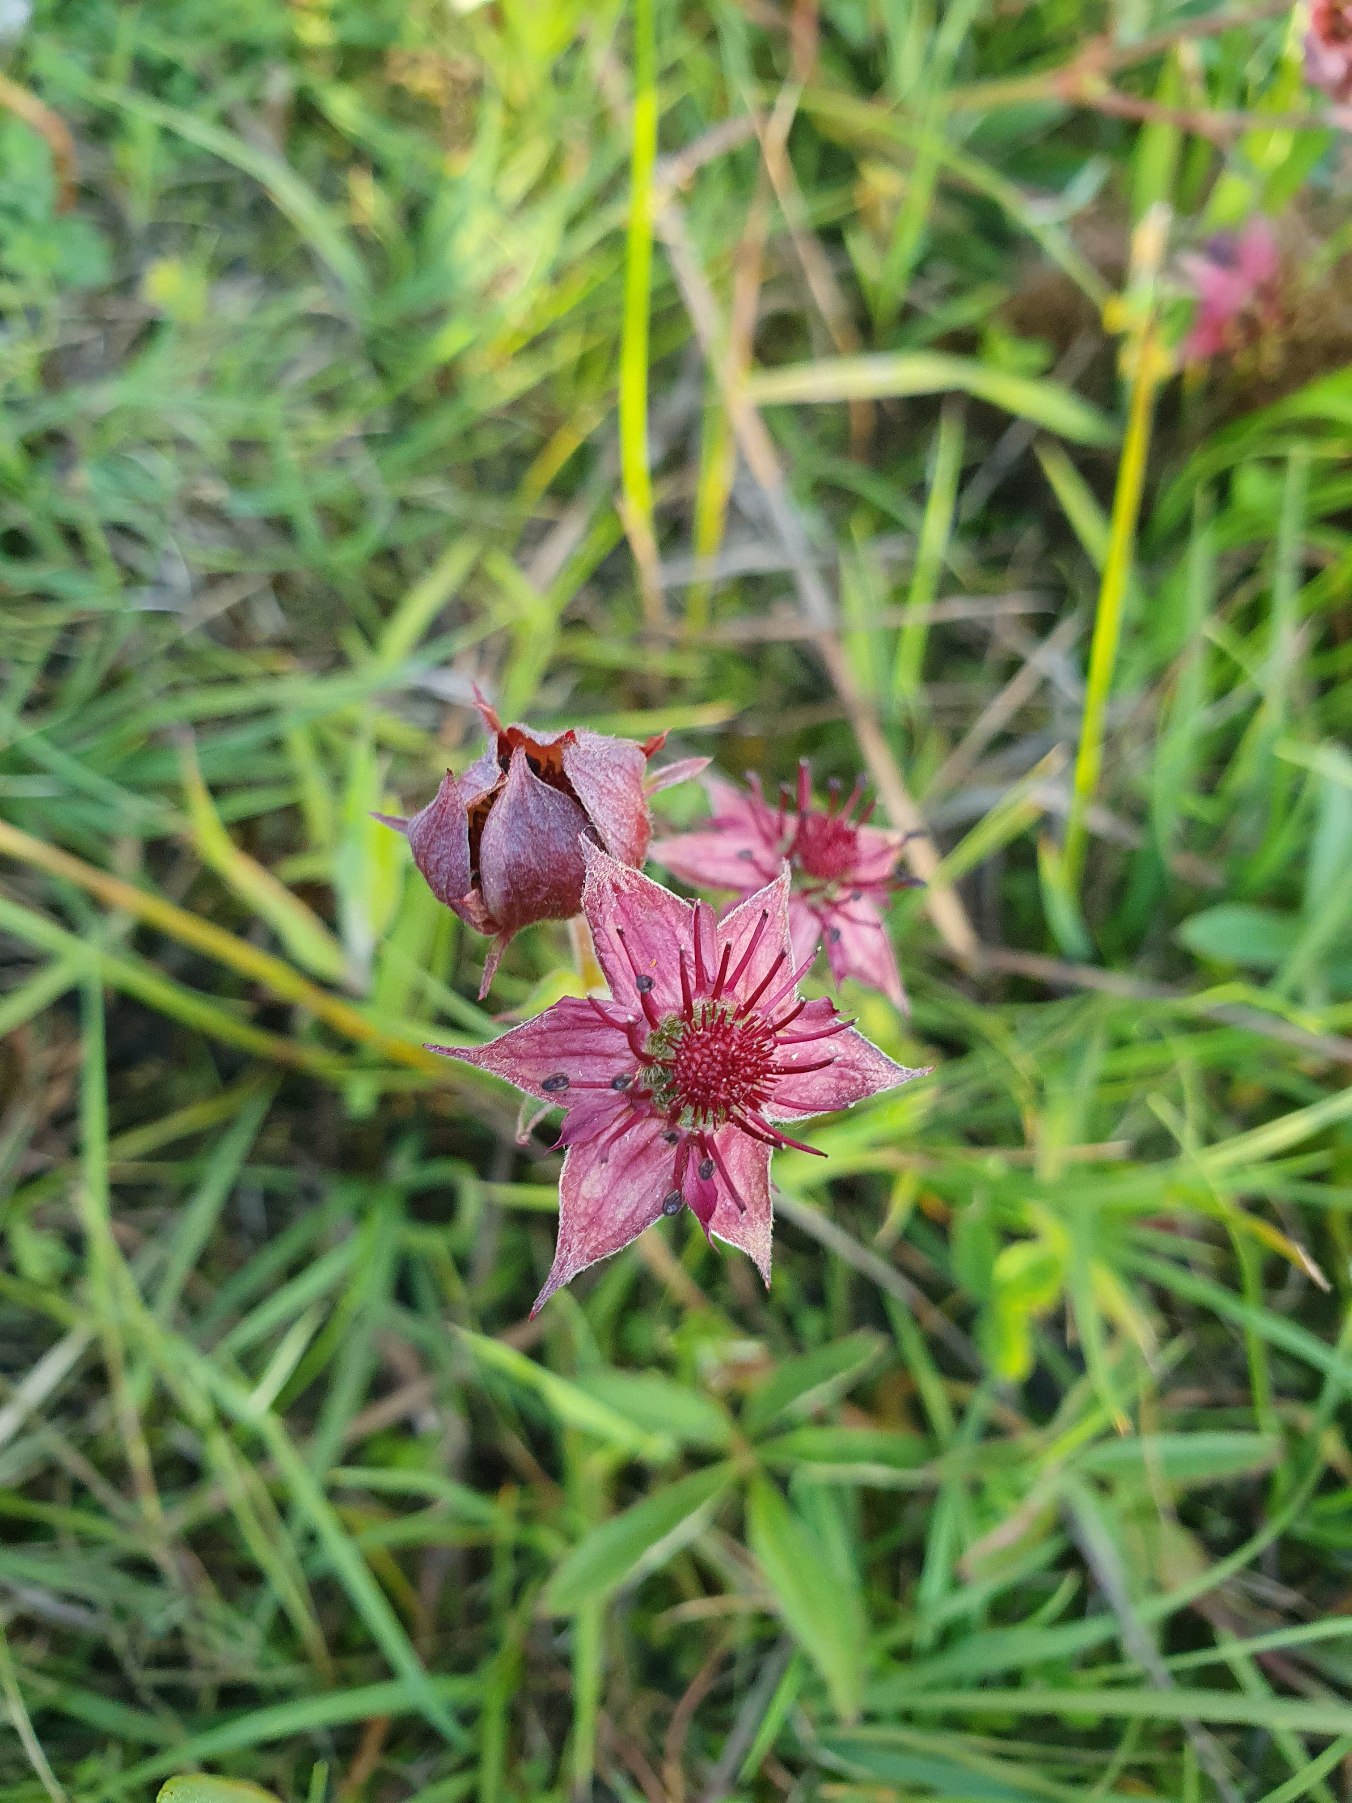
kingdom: Plantae
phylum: Tracheophyta
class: Magnoliopsida
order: Rosales
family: Rosaceae
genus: Comarum
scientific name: Comarum palustre
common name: Kragefod
